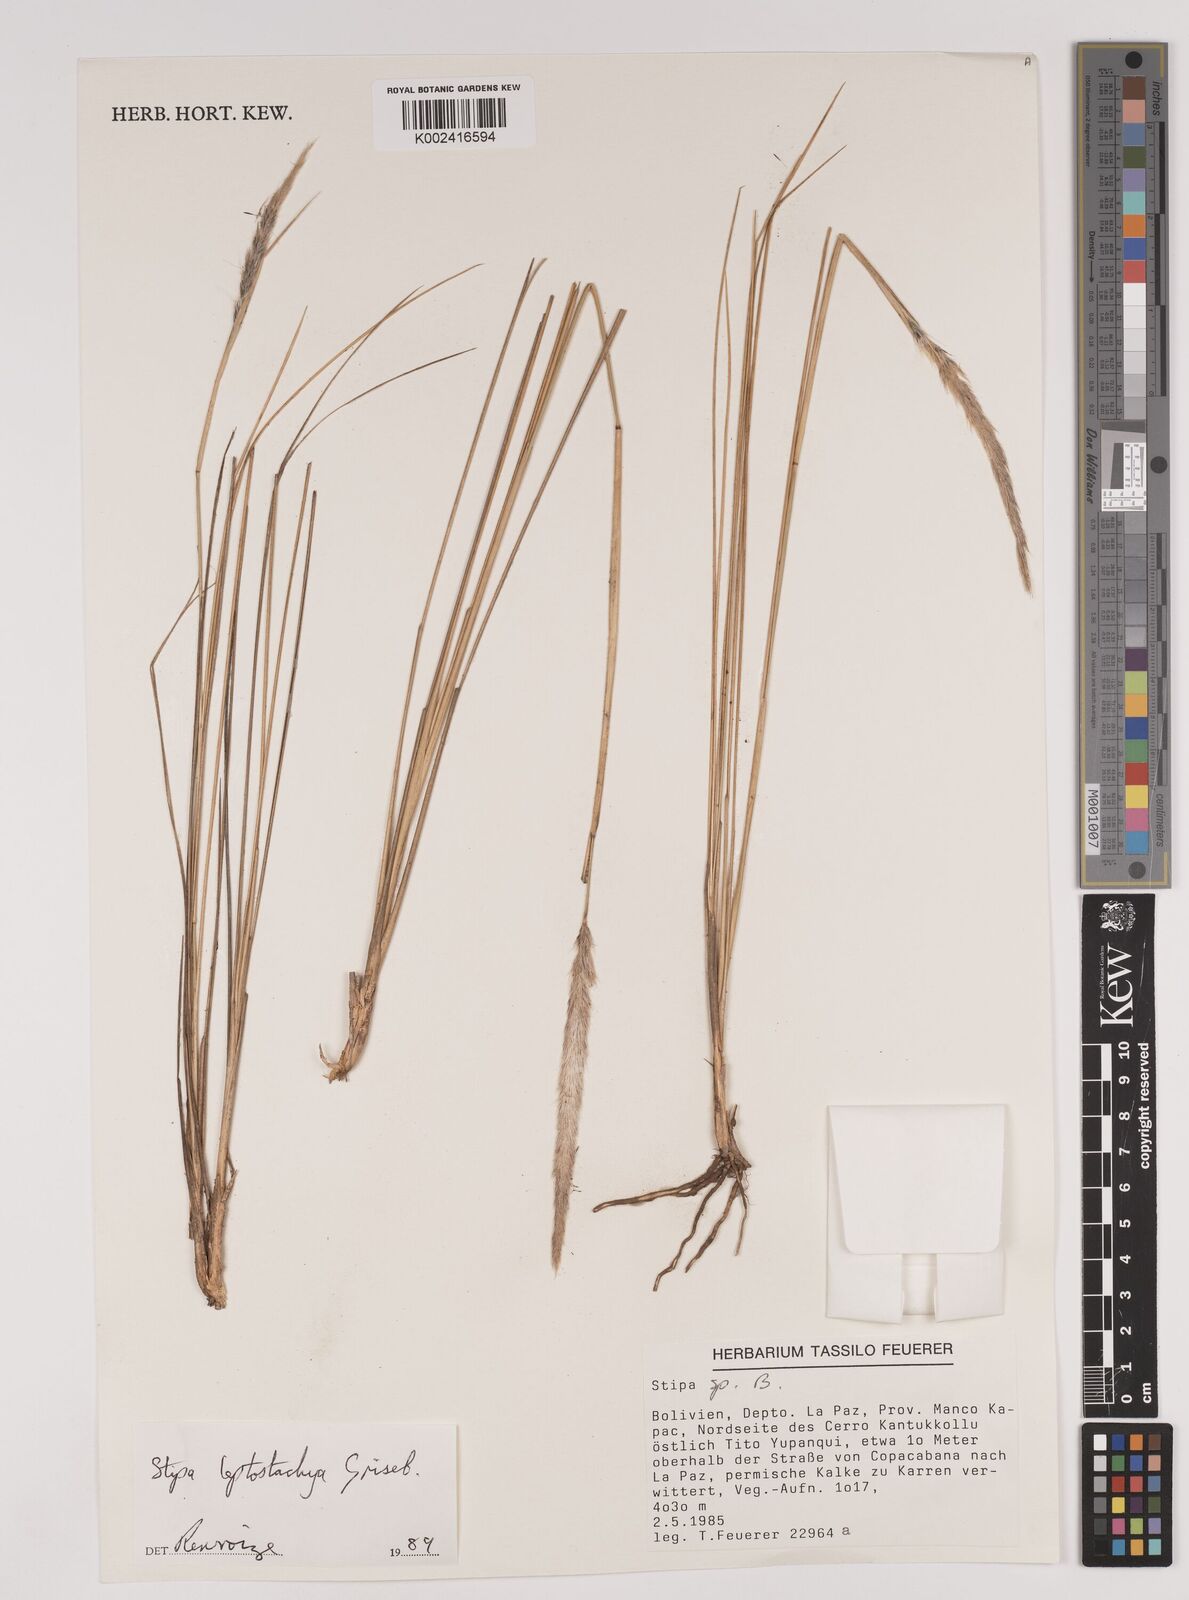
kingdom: Plantae
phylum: Tracheophyta
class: Liliopsida
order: Poales
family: Poaceae
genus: Jarava
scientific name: Jarava leptostachya
